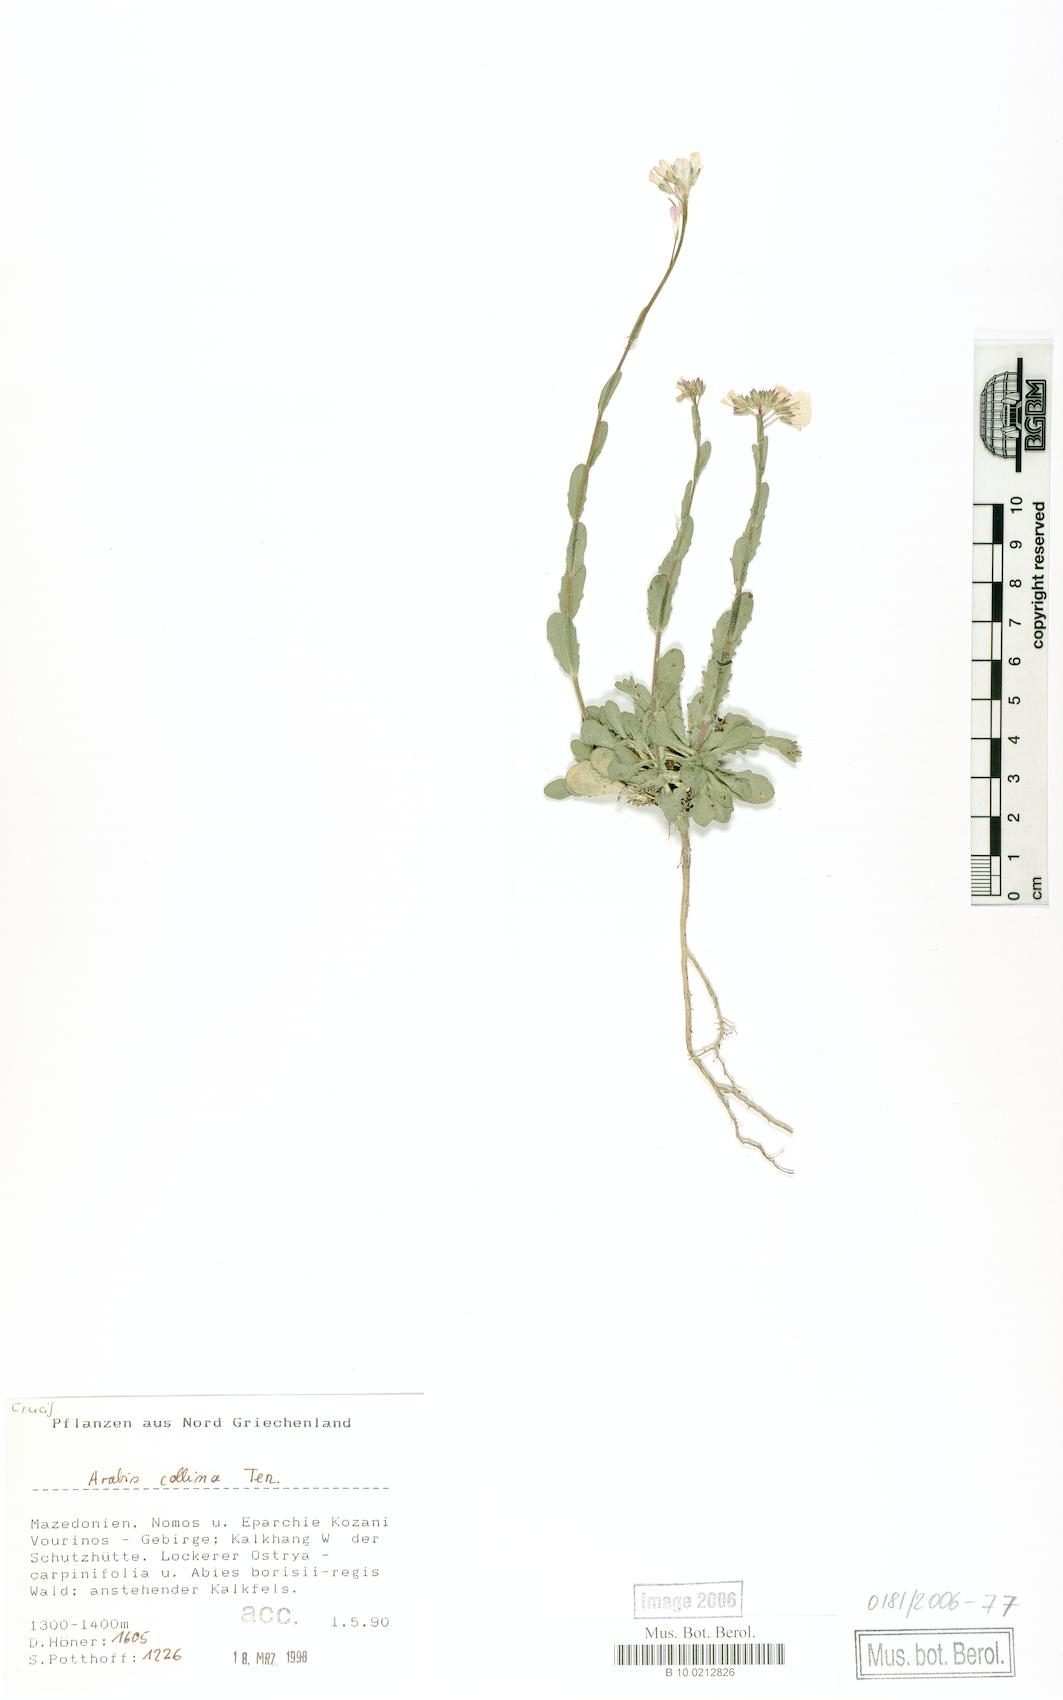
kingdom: Plantae
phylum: Tracheophyta
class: Magnoliopsida
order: Brassicales
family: Brassicaceae
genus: Arabis
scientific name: Arabis collina
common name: Rosy cress
